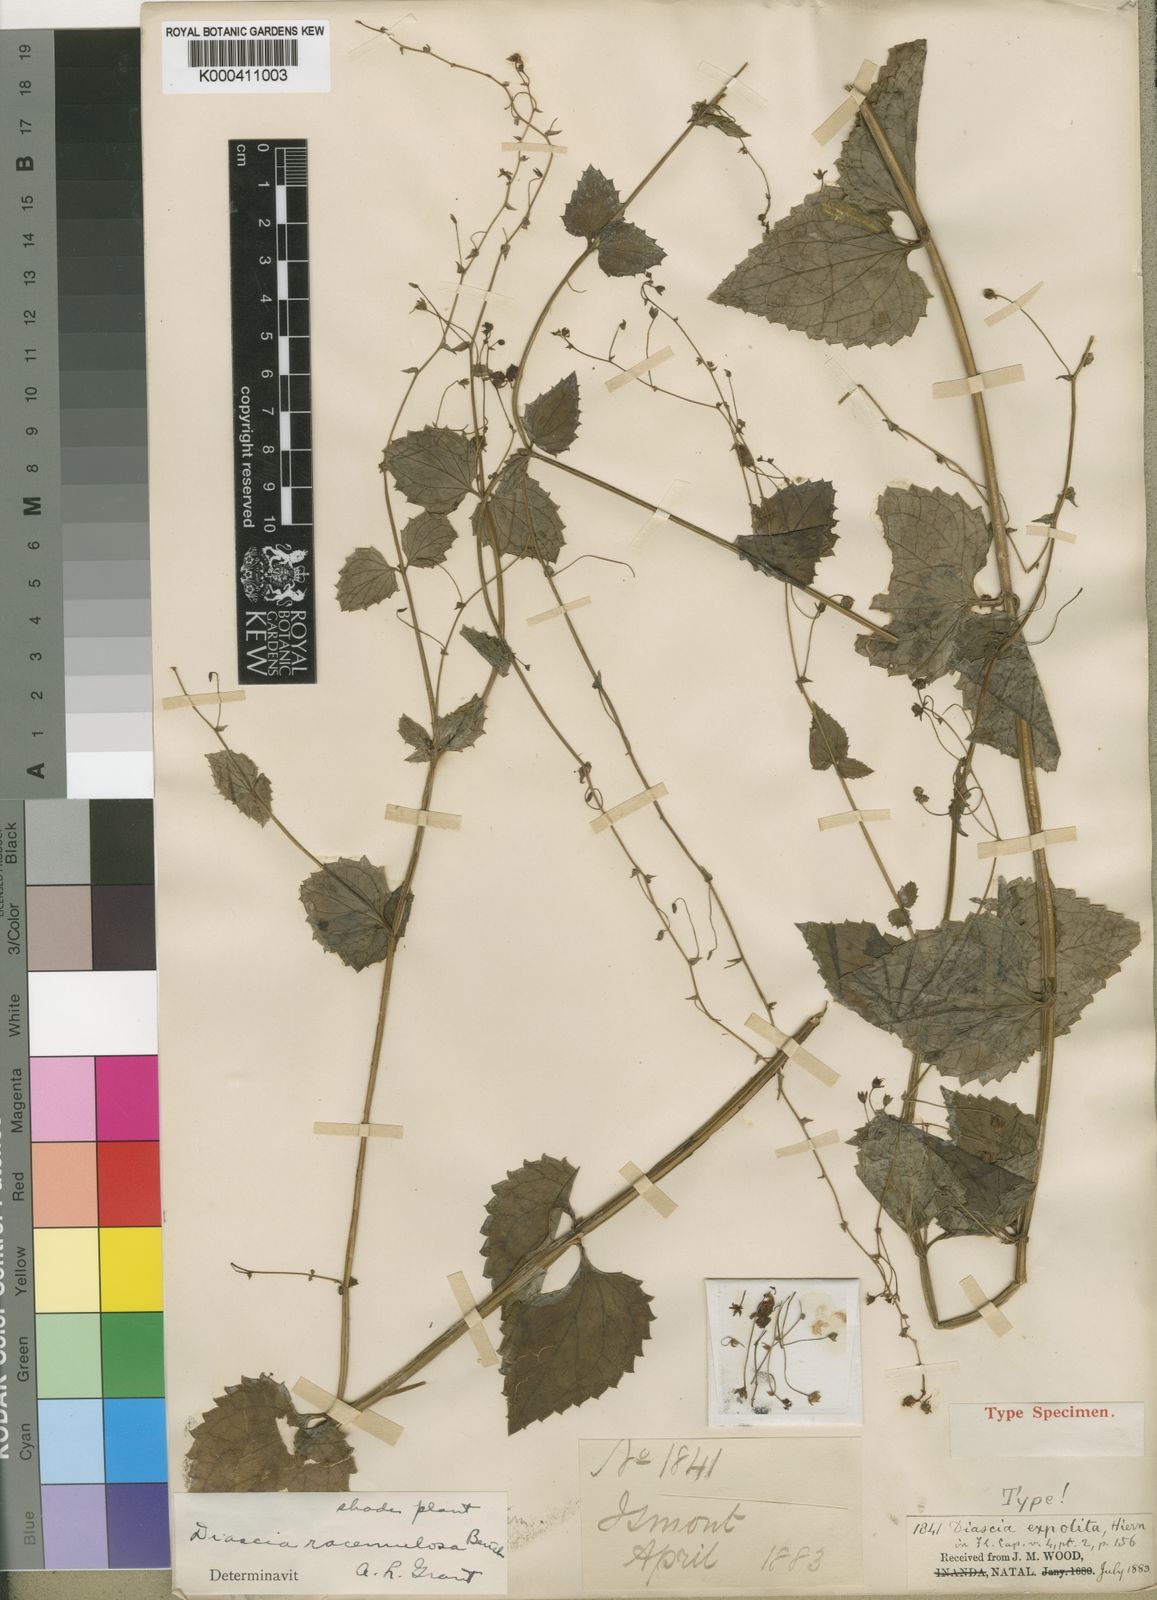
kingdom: Plantae
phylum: Tracheophyta
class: Magnoliopsida
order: Lamiales
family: Scrophulariaceae
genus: Diascia
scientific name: Diascia racemulosa
